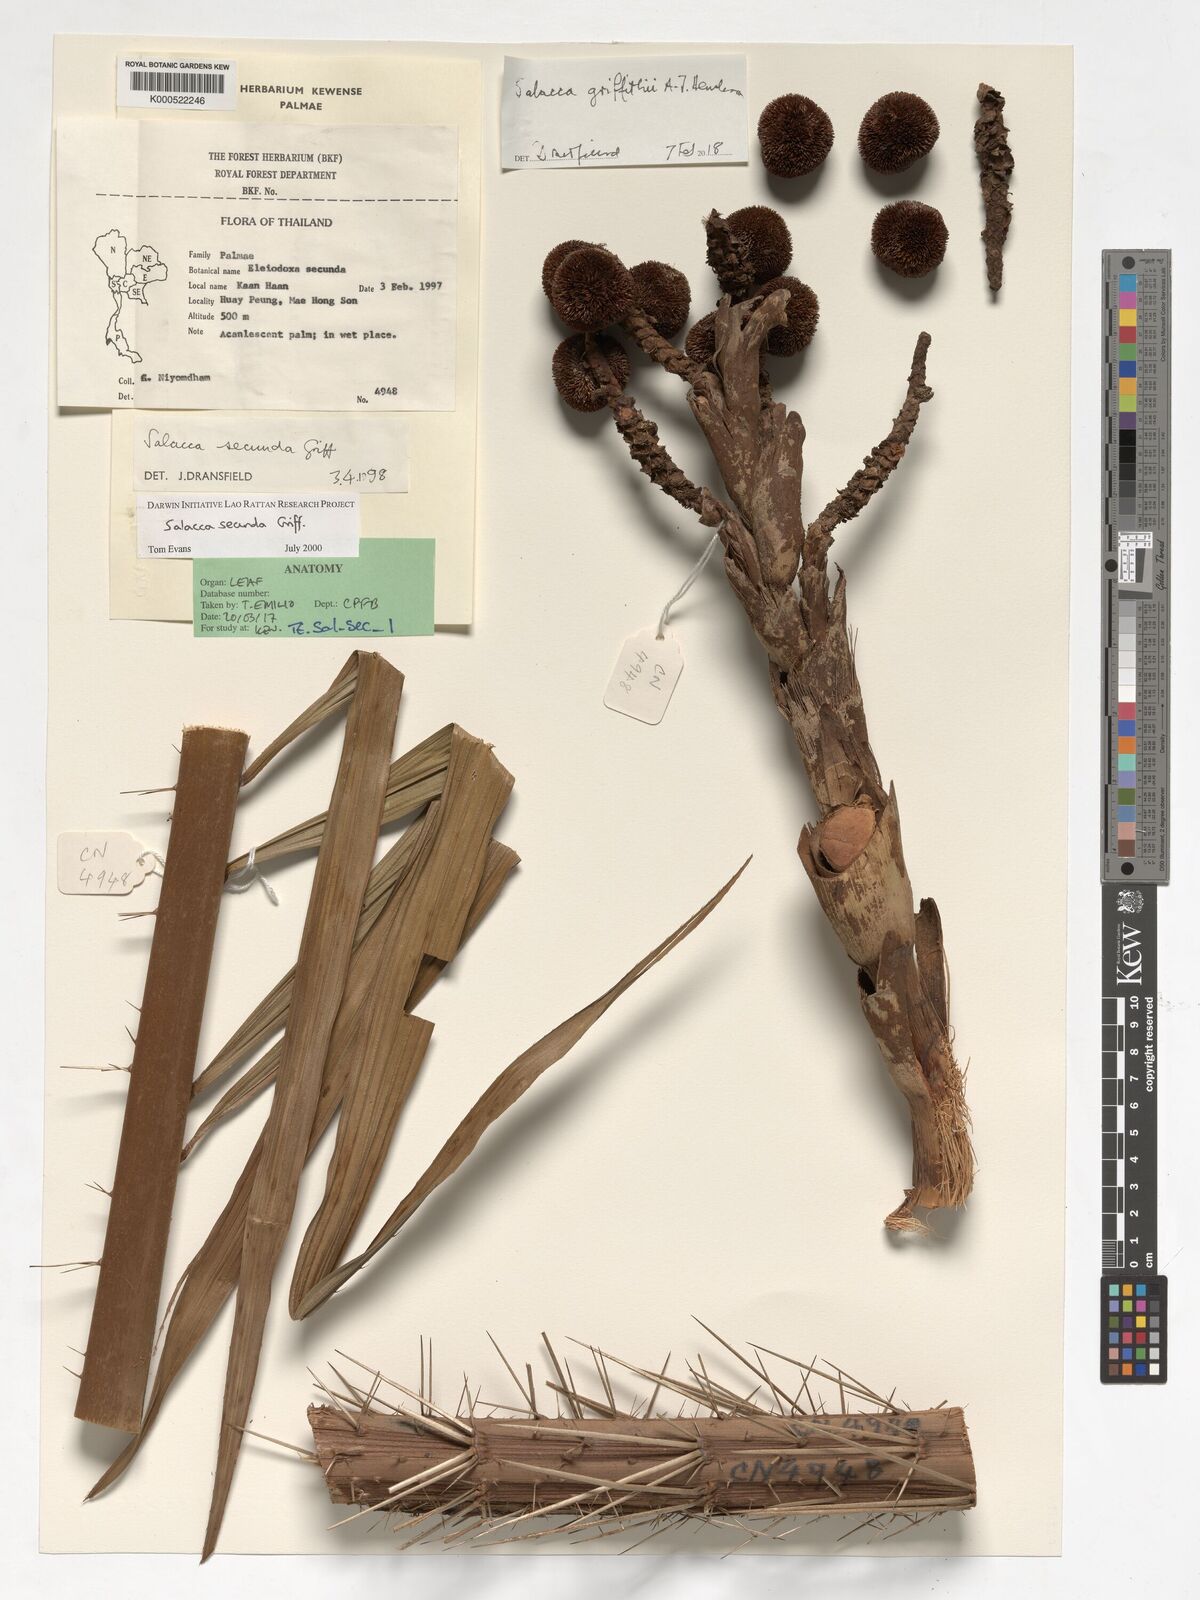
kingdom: Plantae
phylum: Tracheophyta
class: Liliopsida
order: Arecales
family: Arecaceae
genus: Salacca
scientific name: Salacca secunda
